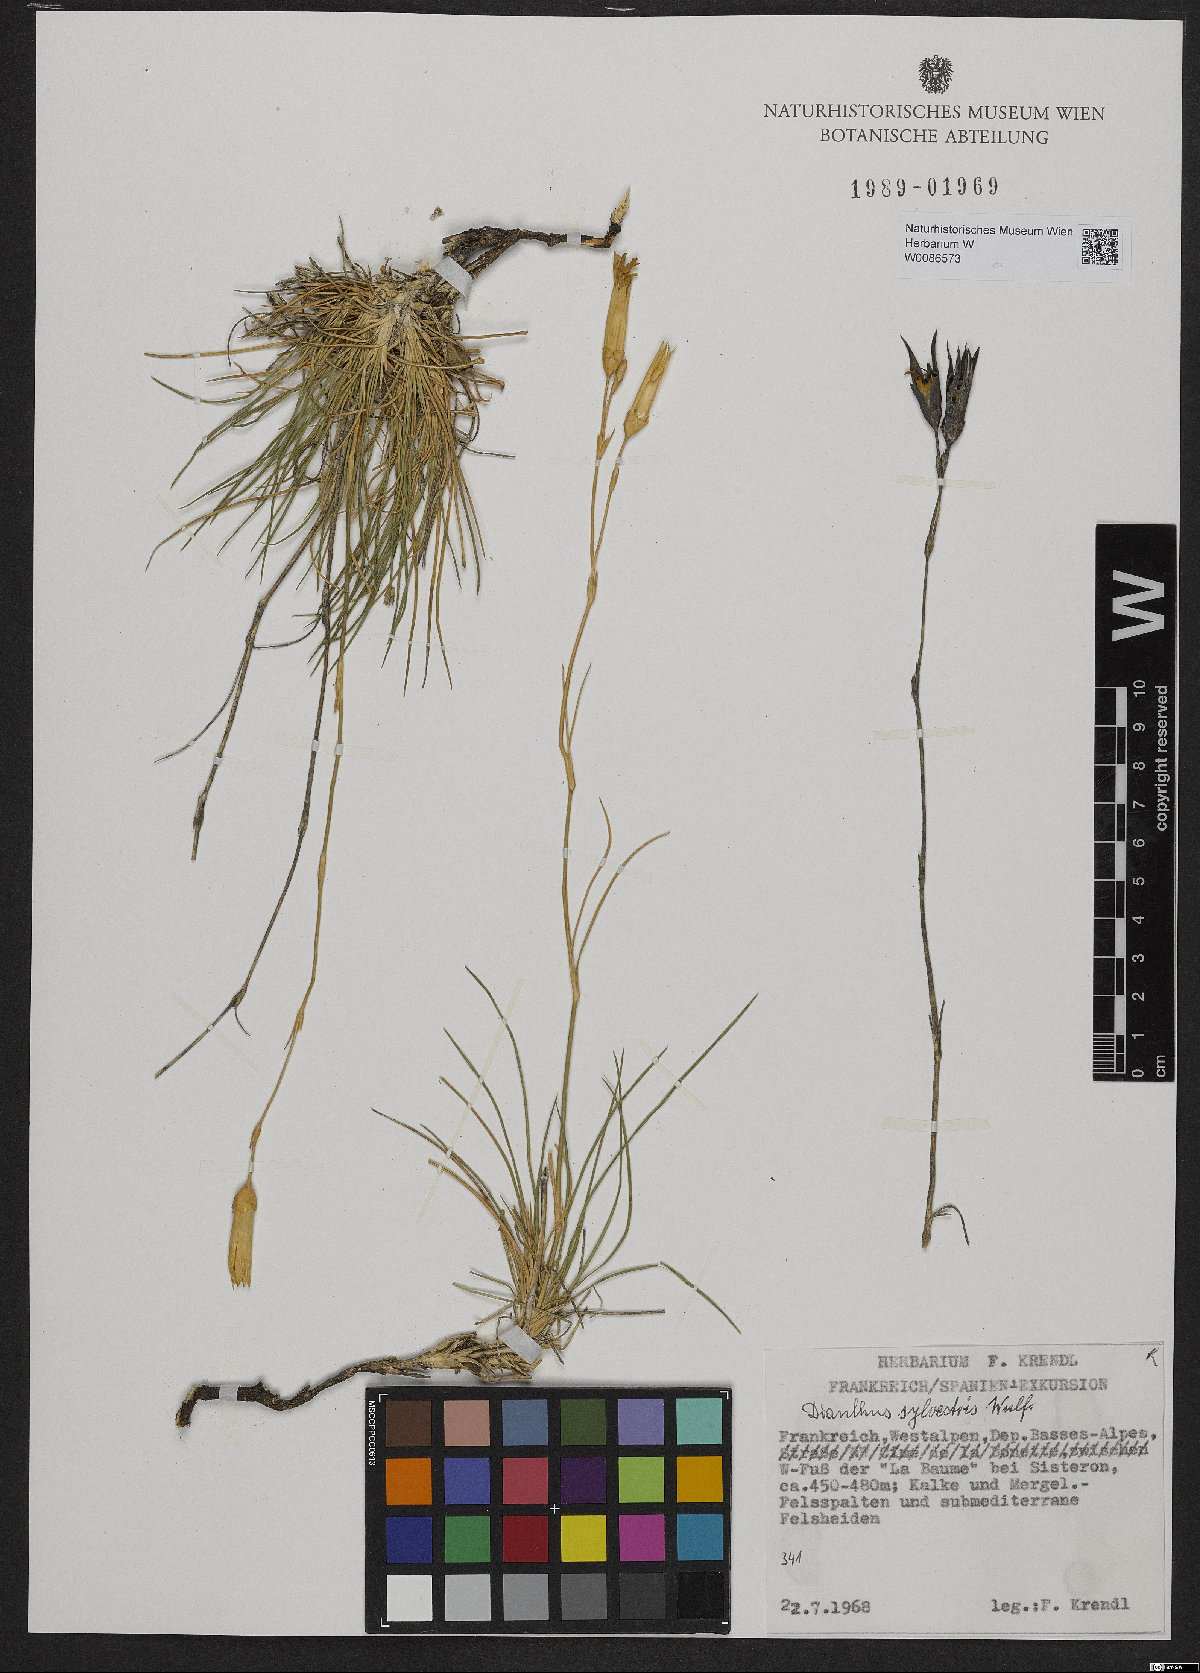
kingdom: Plantae
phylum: Tracheophyta
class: Magnoliopsida
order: Caryophyllales
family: Caryophyllaceae
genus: Dianthus
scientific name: Dianthus sylvestris
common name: Wood pink
